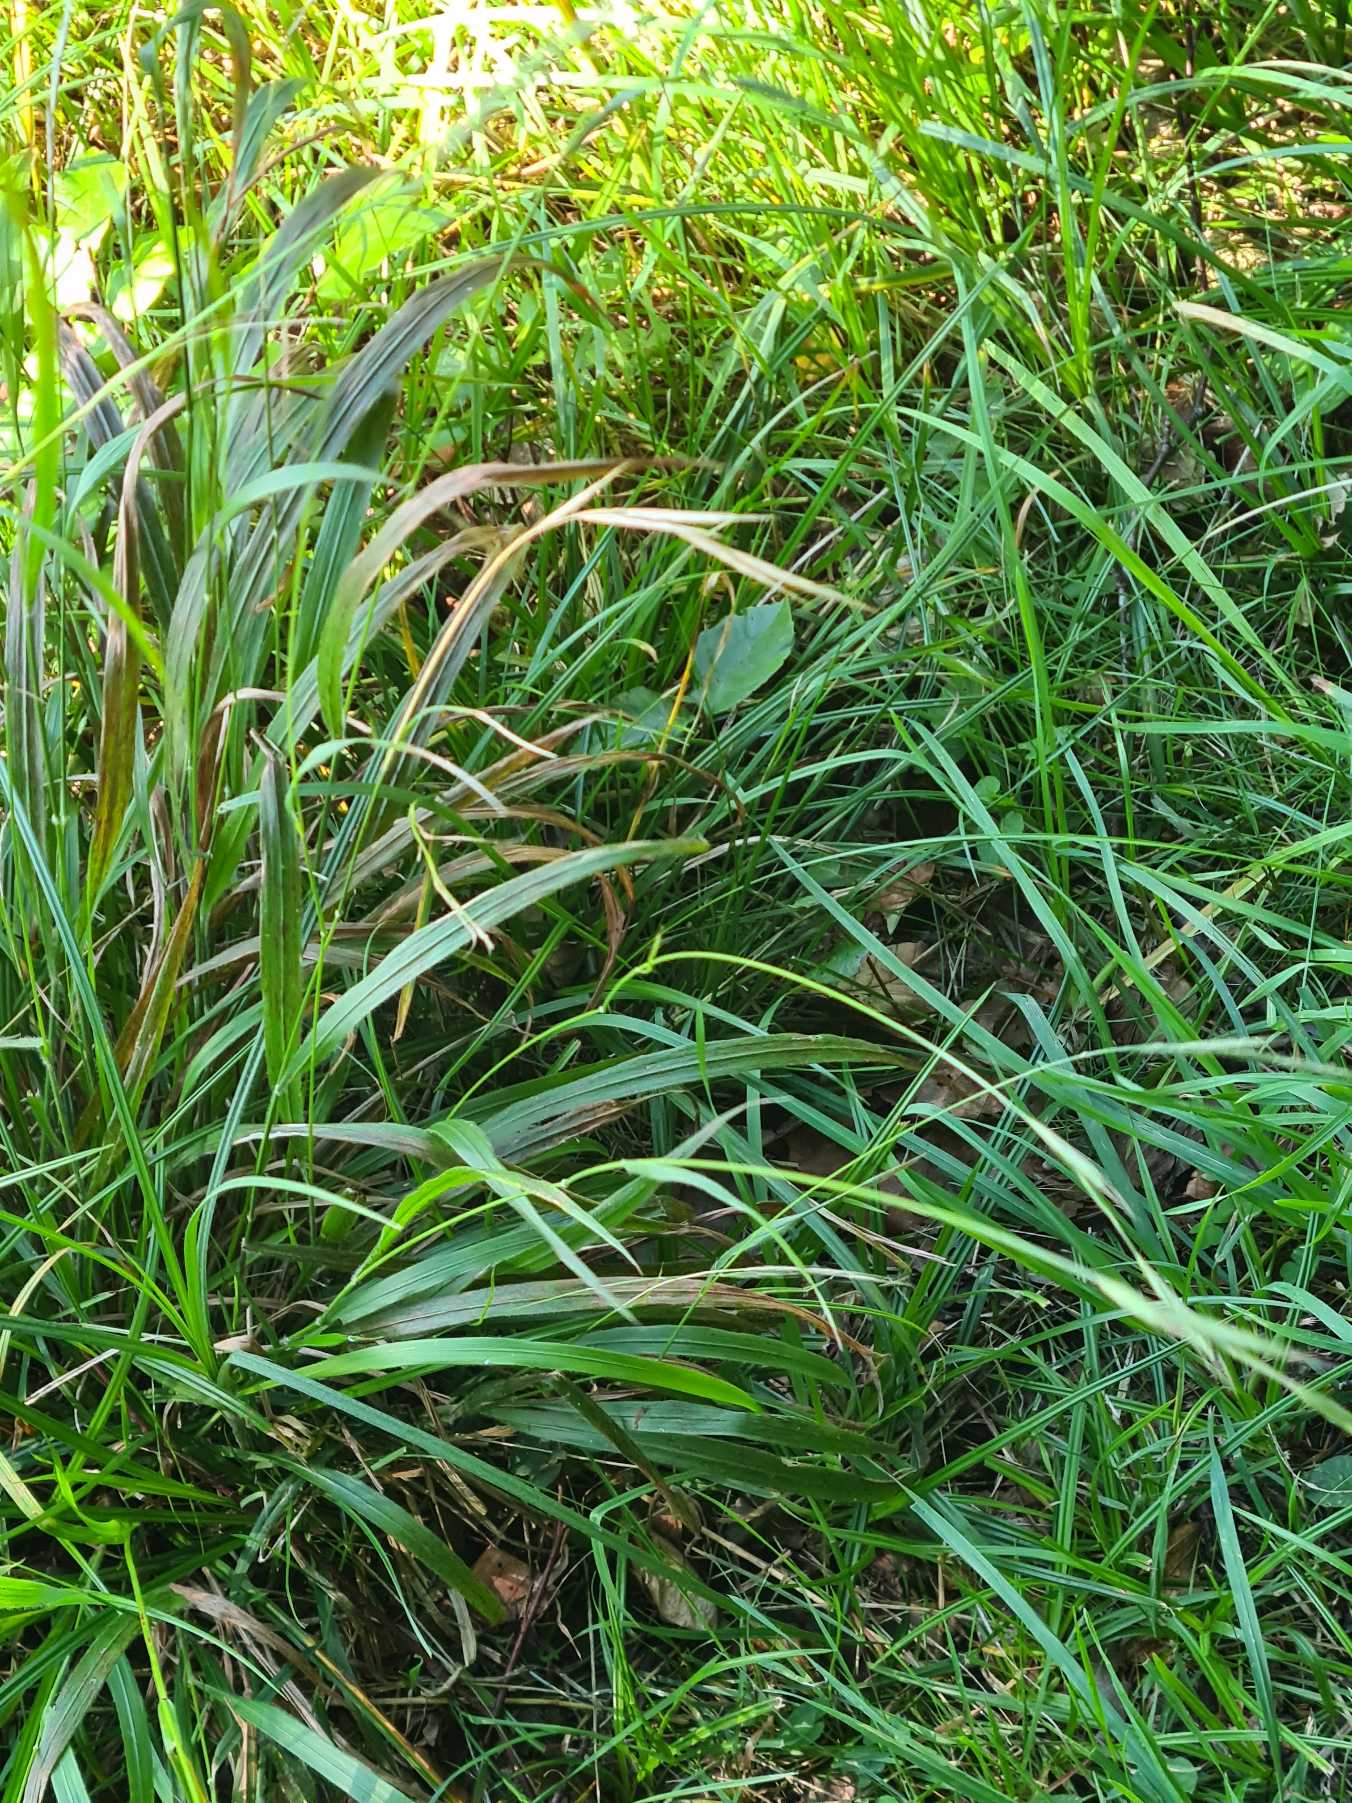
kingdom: Plantae
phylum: Tracheophyta
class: Liliopsida
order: Poales
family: Poaceae
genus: Brachypodium
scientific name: Brachypodium sylvaticum
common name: Skov-stilkaks
